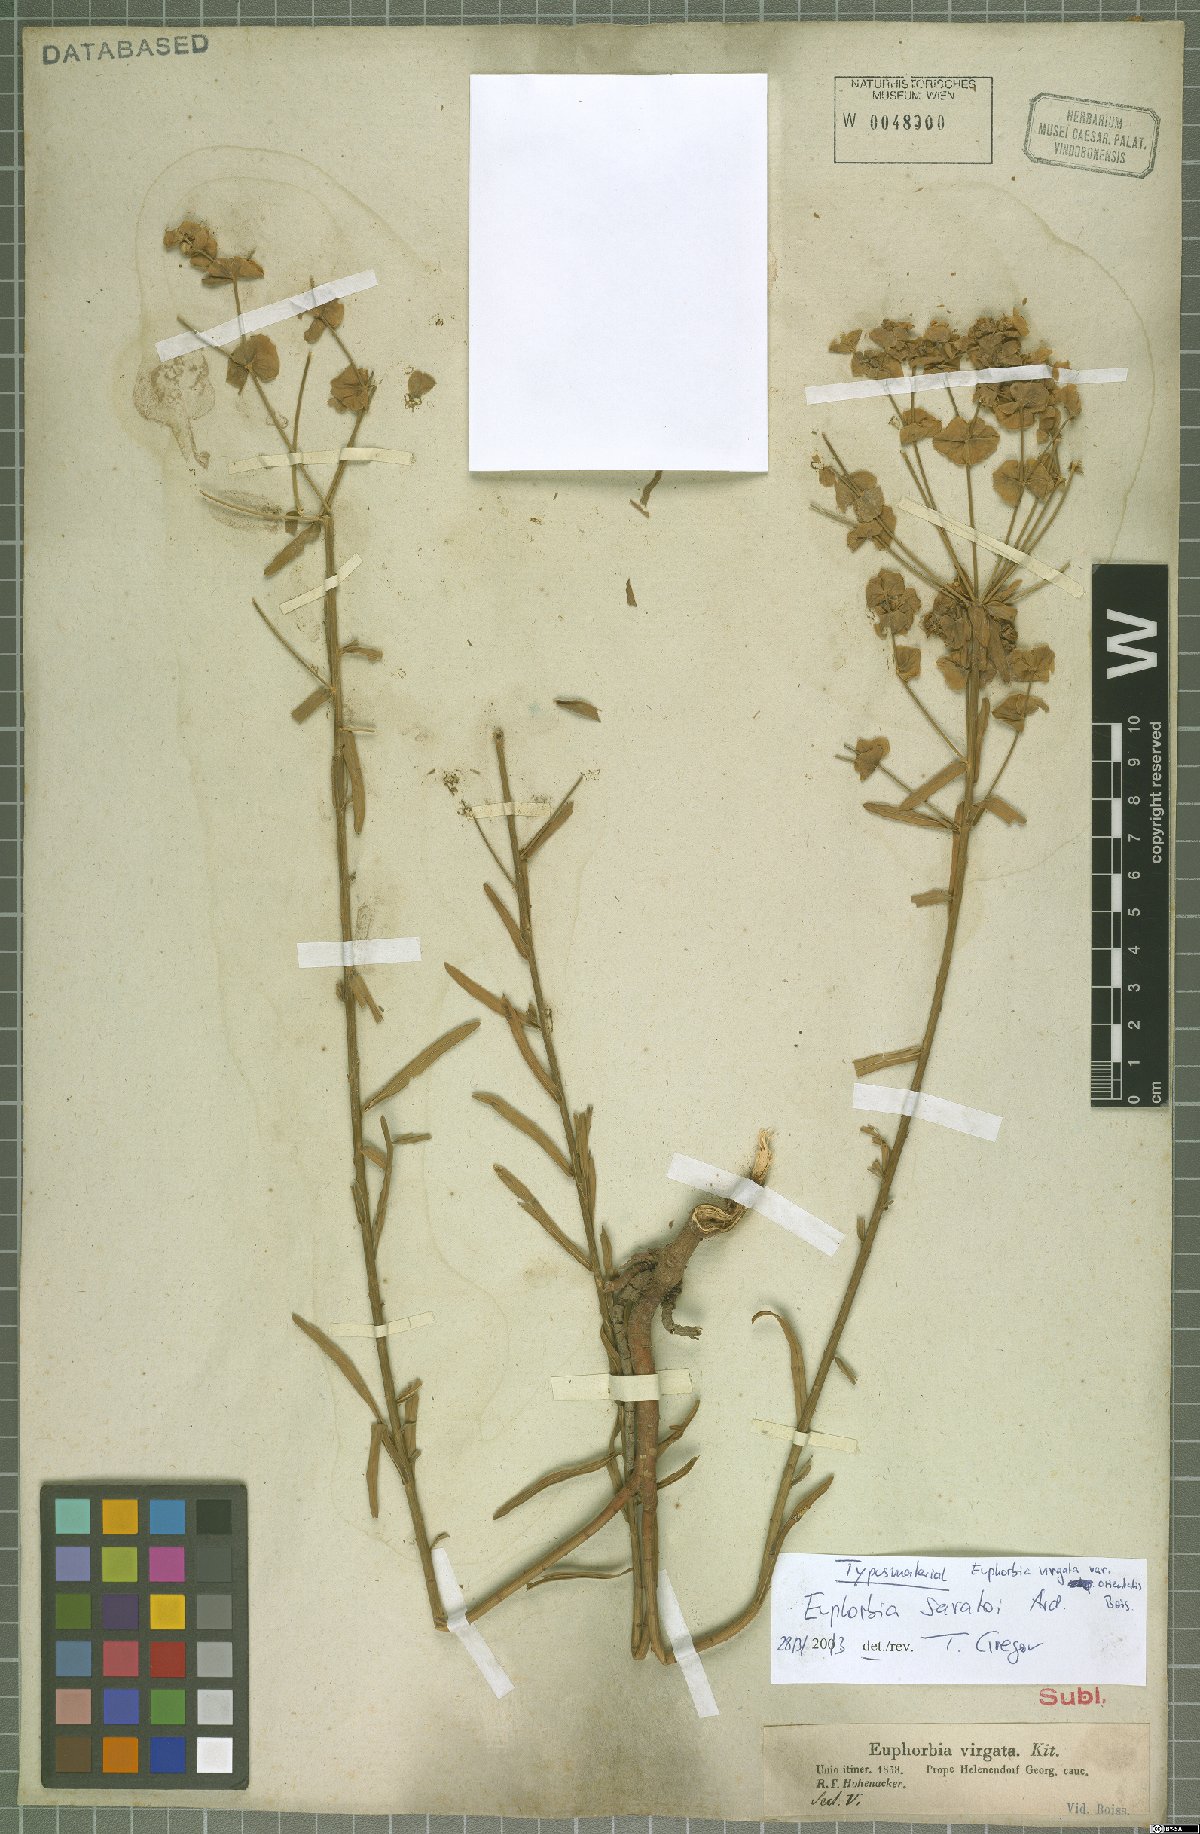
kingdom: Plantae
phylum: Tracheophyta
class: Magnoliopsida
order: Malpighiales
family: Euphorbiaceae
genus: Euphorbia
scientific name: Euphorbia saratoi
